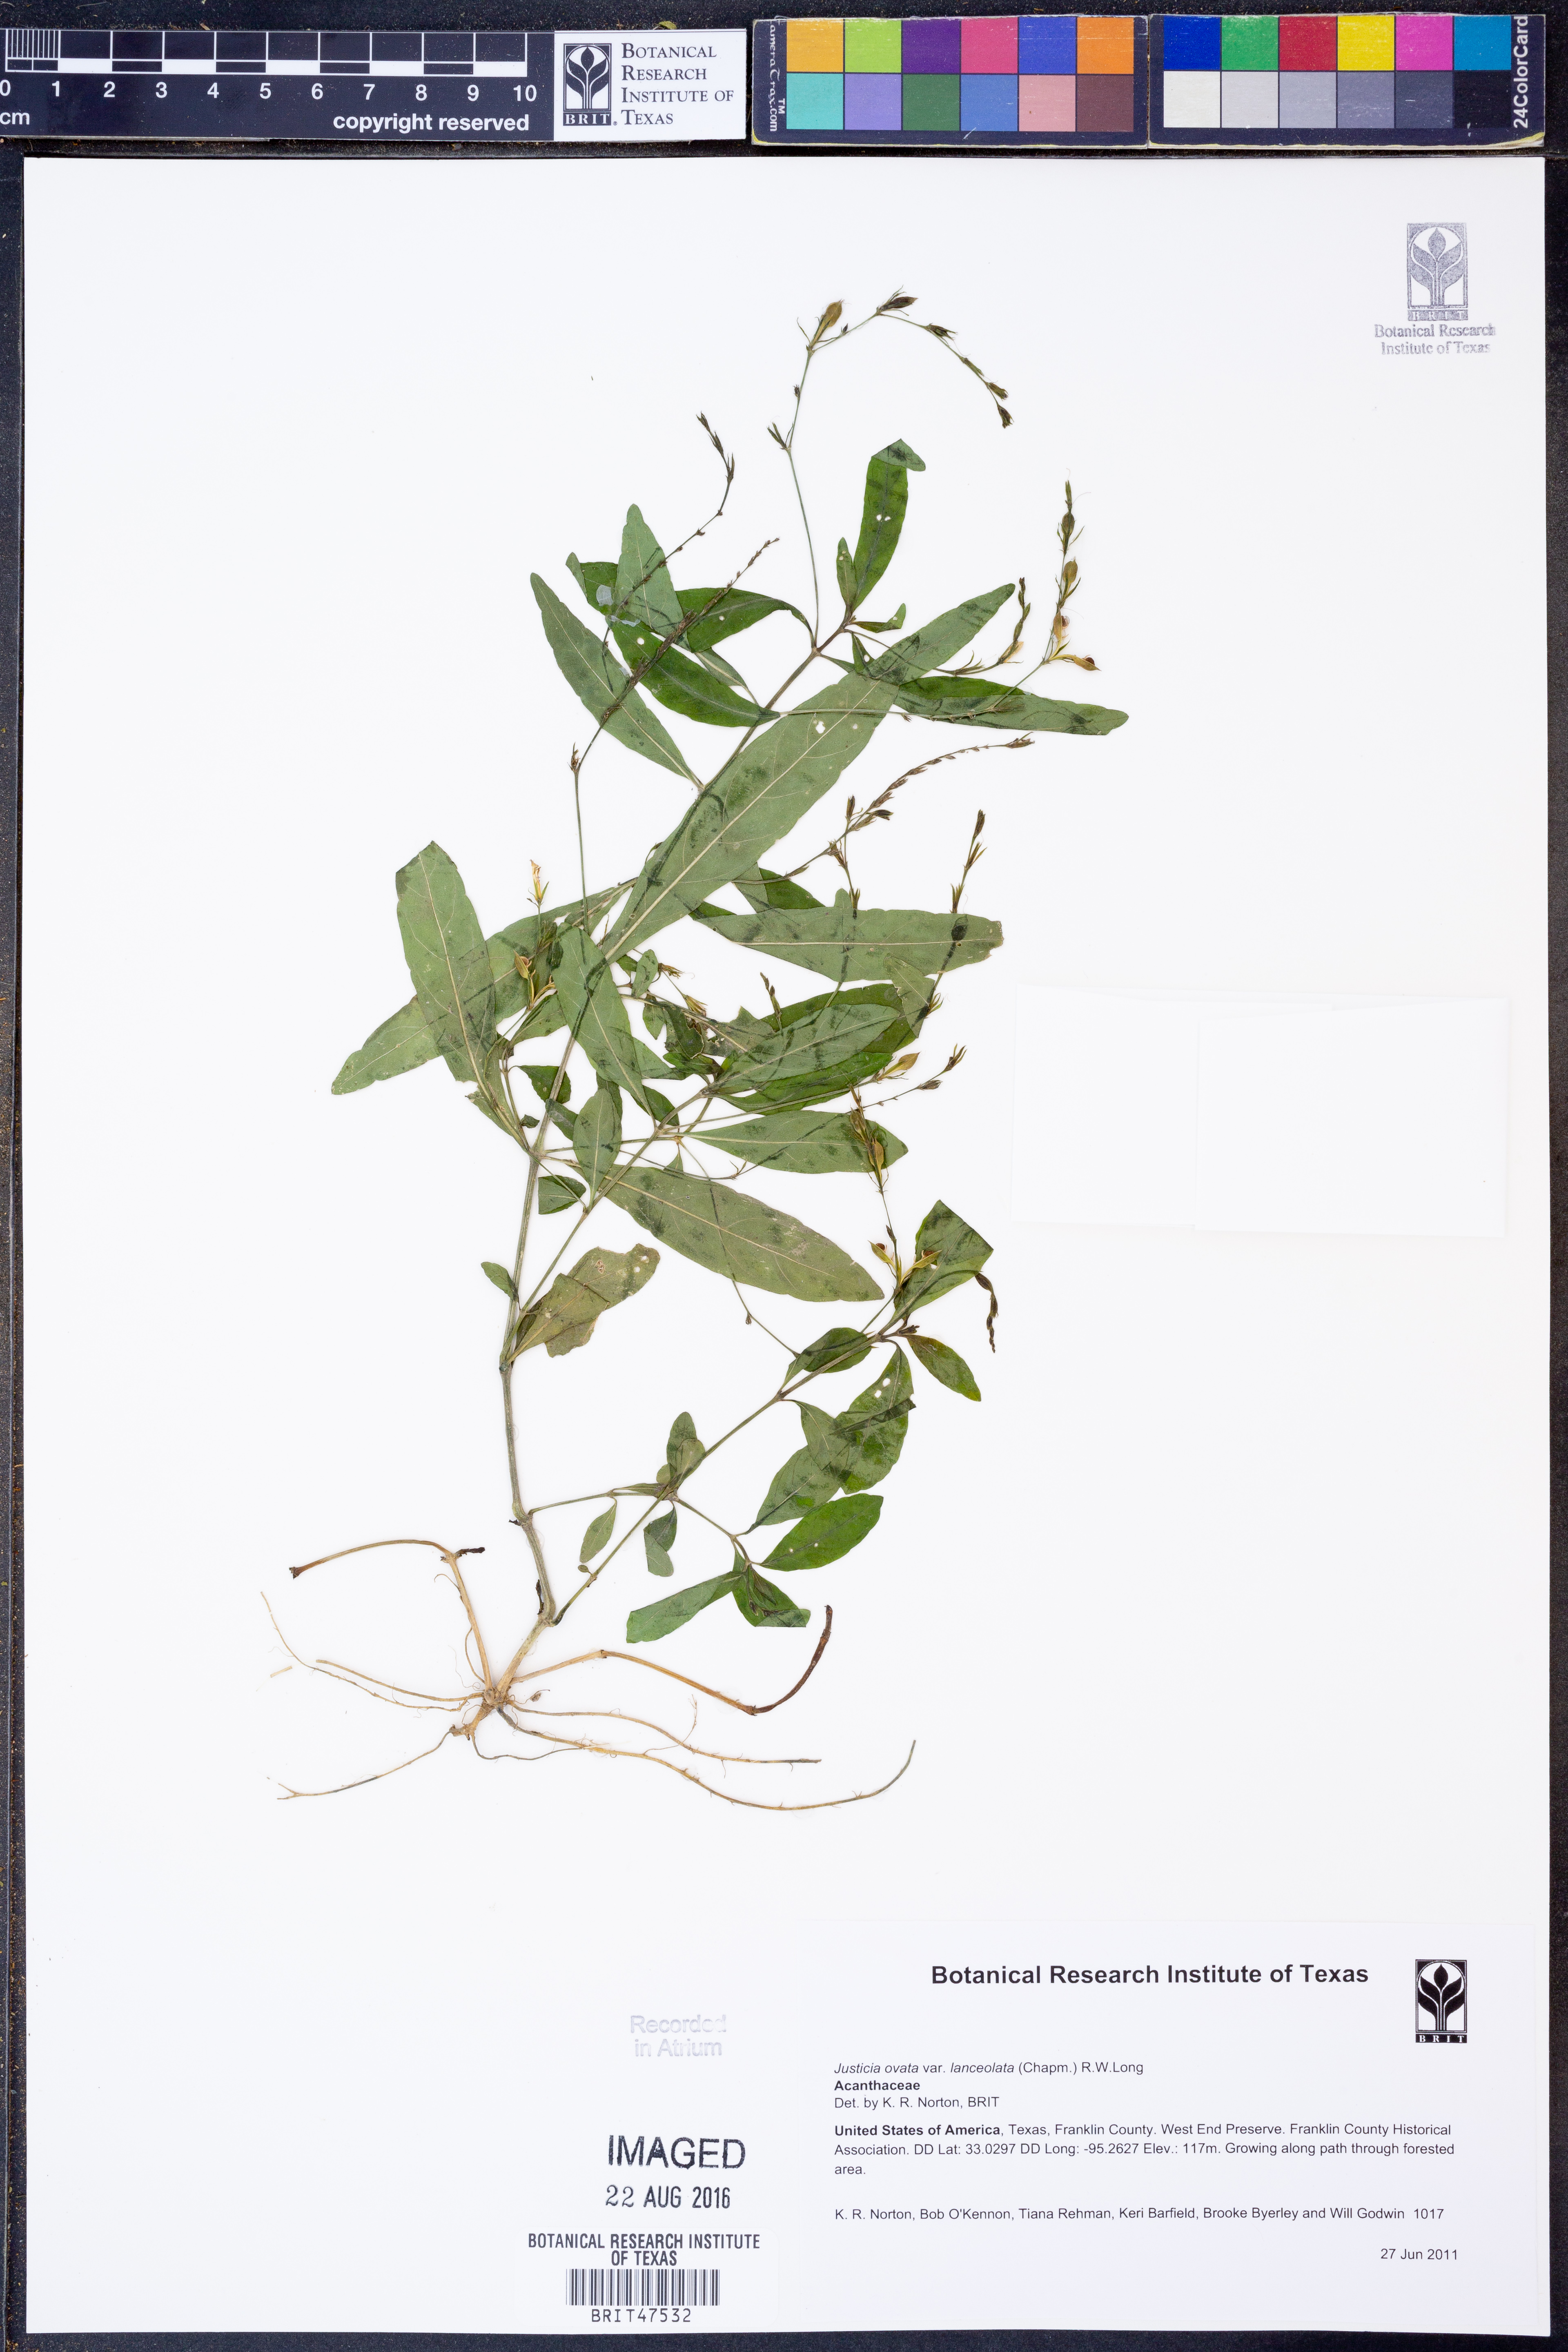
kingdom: Plantae
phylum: Tracheophyta
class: Magnoliopsida
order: Lamiales
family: Acanthaceae
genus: Justicia
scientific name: Justicia lanceolata
